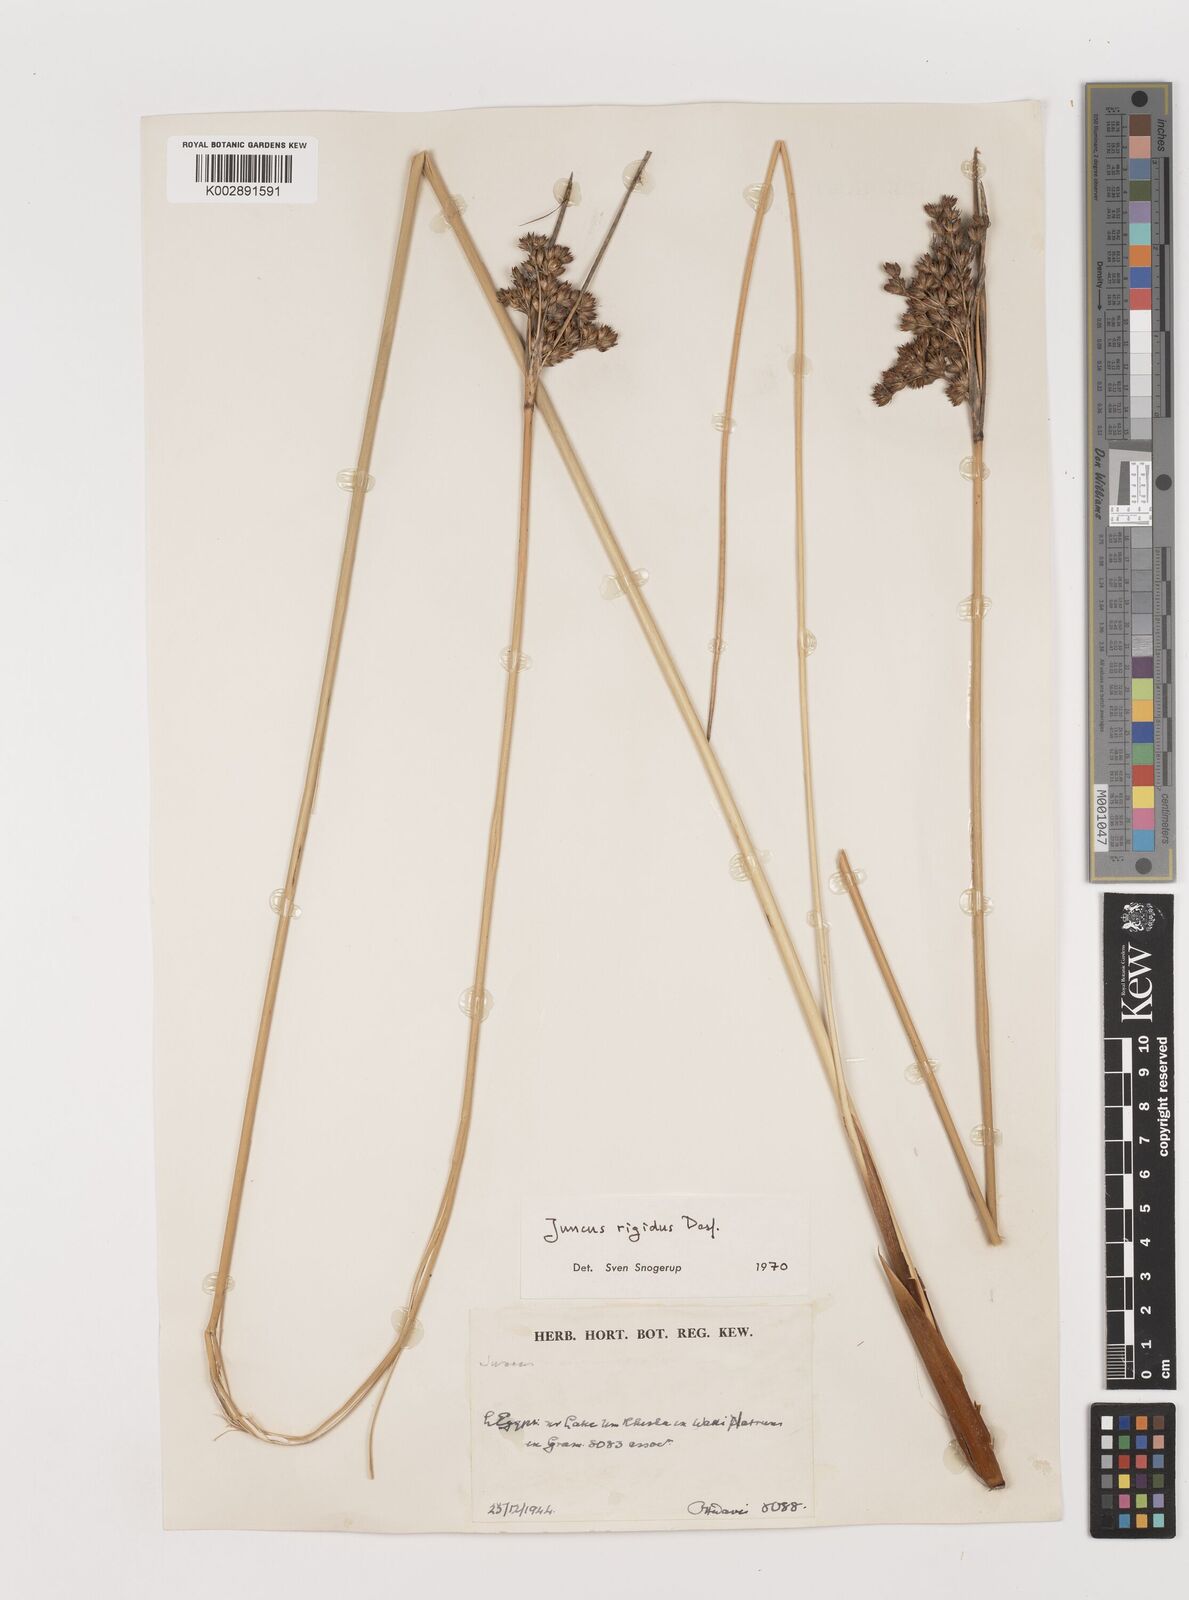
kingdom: Plantae
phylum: Tracheophyta
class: Liliopsida
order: Poales
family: Juncaceae
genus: Juncus
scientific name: Juncus rigidus
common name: Hard sea rush
